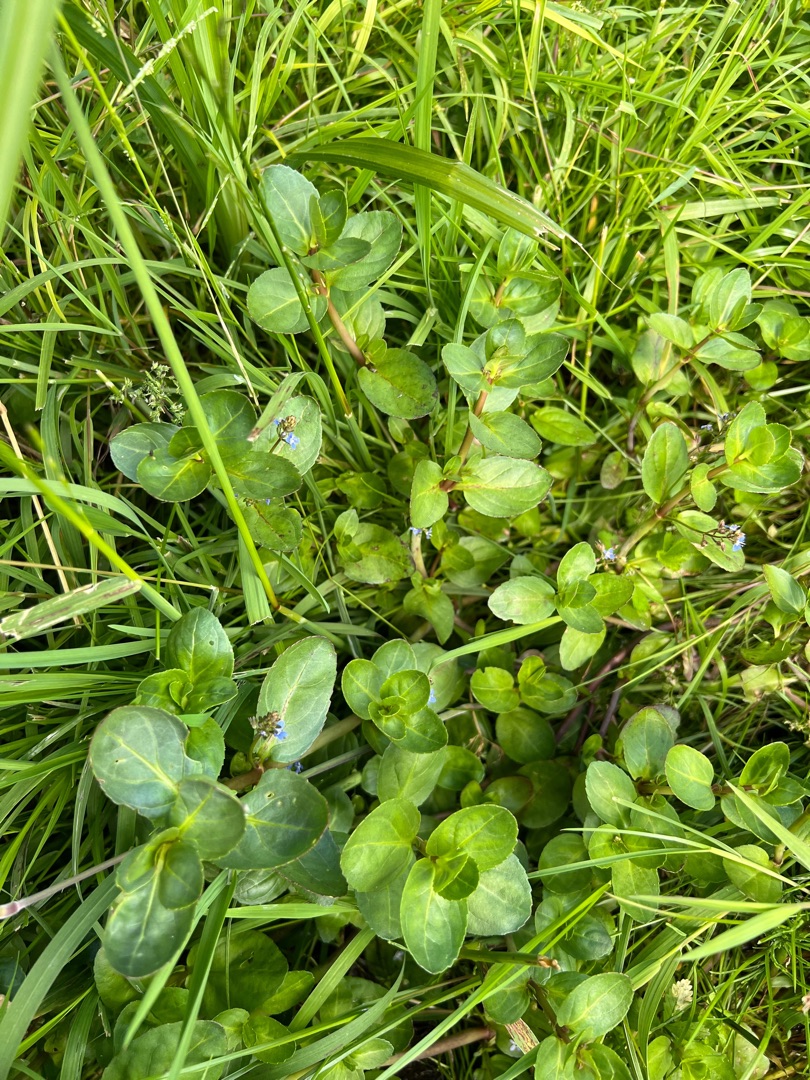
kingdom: Plantae
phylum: Tracheophyta
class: Magnoliopsida
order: Lamiales
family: Plantaginaceae
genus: Veronica
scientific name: Veronica beccabunga
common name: Tykbladet ærenpris
